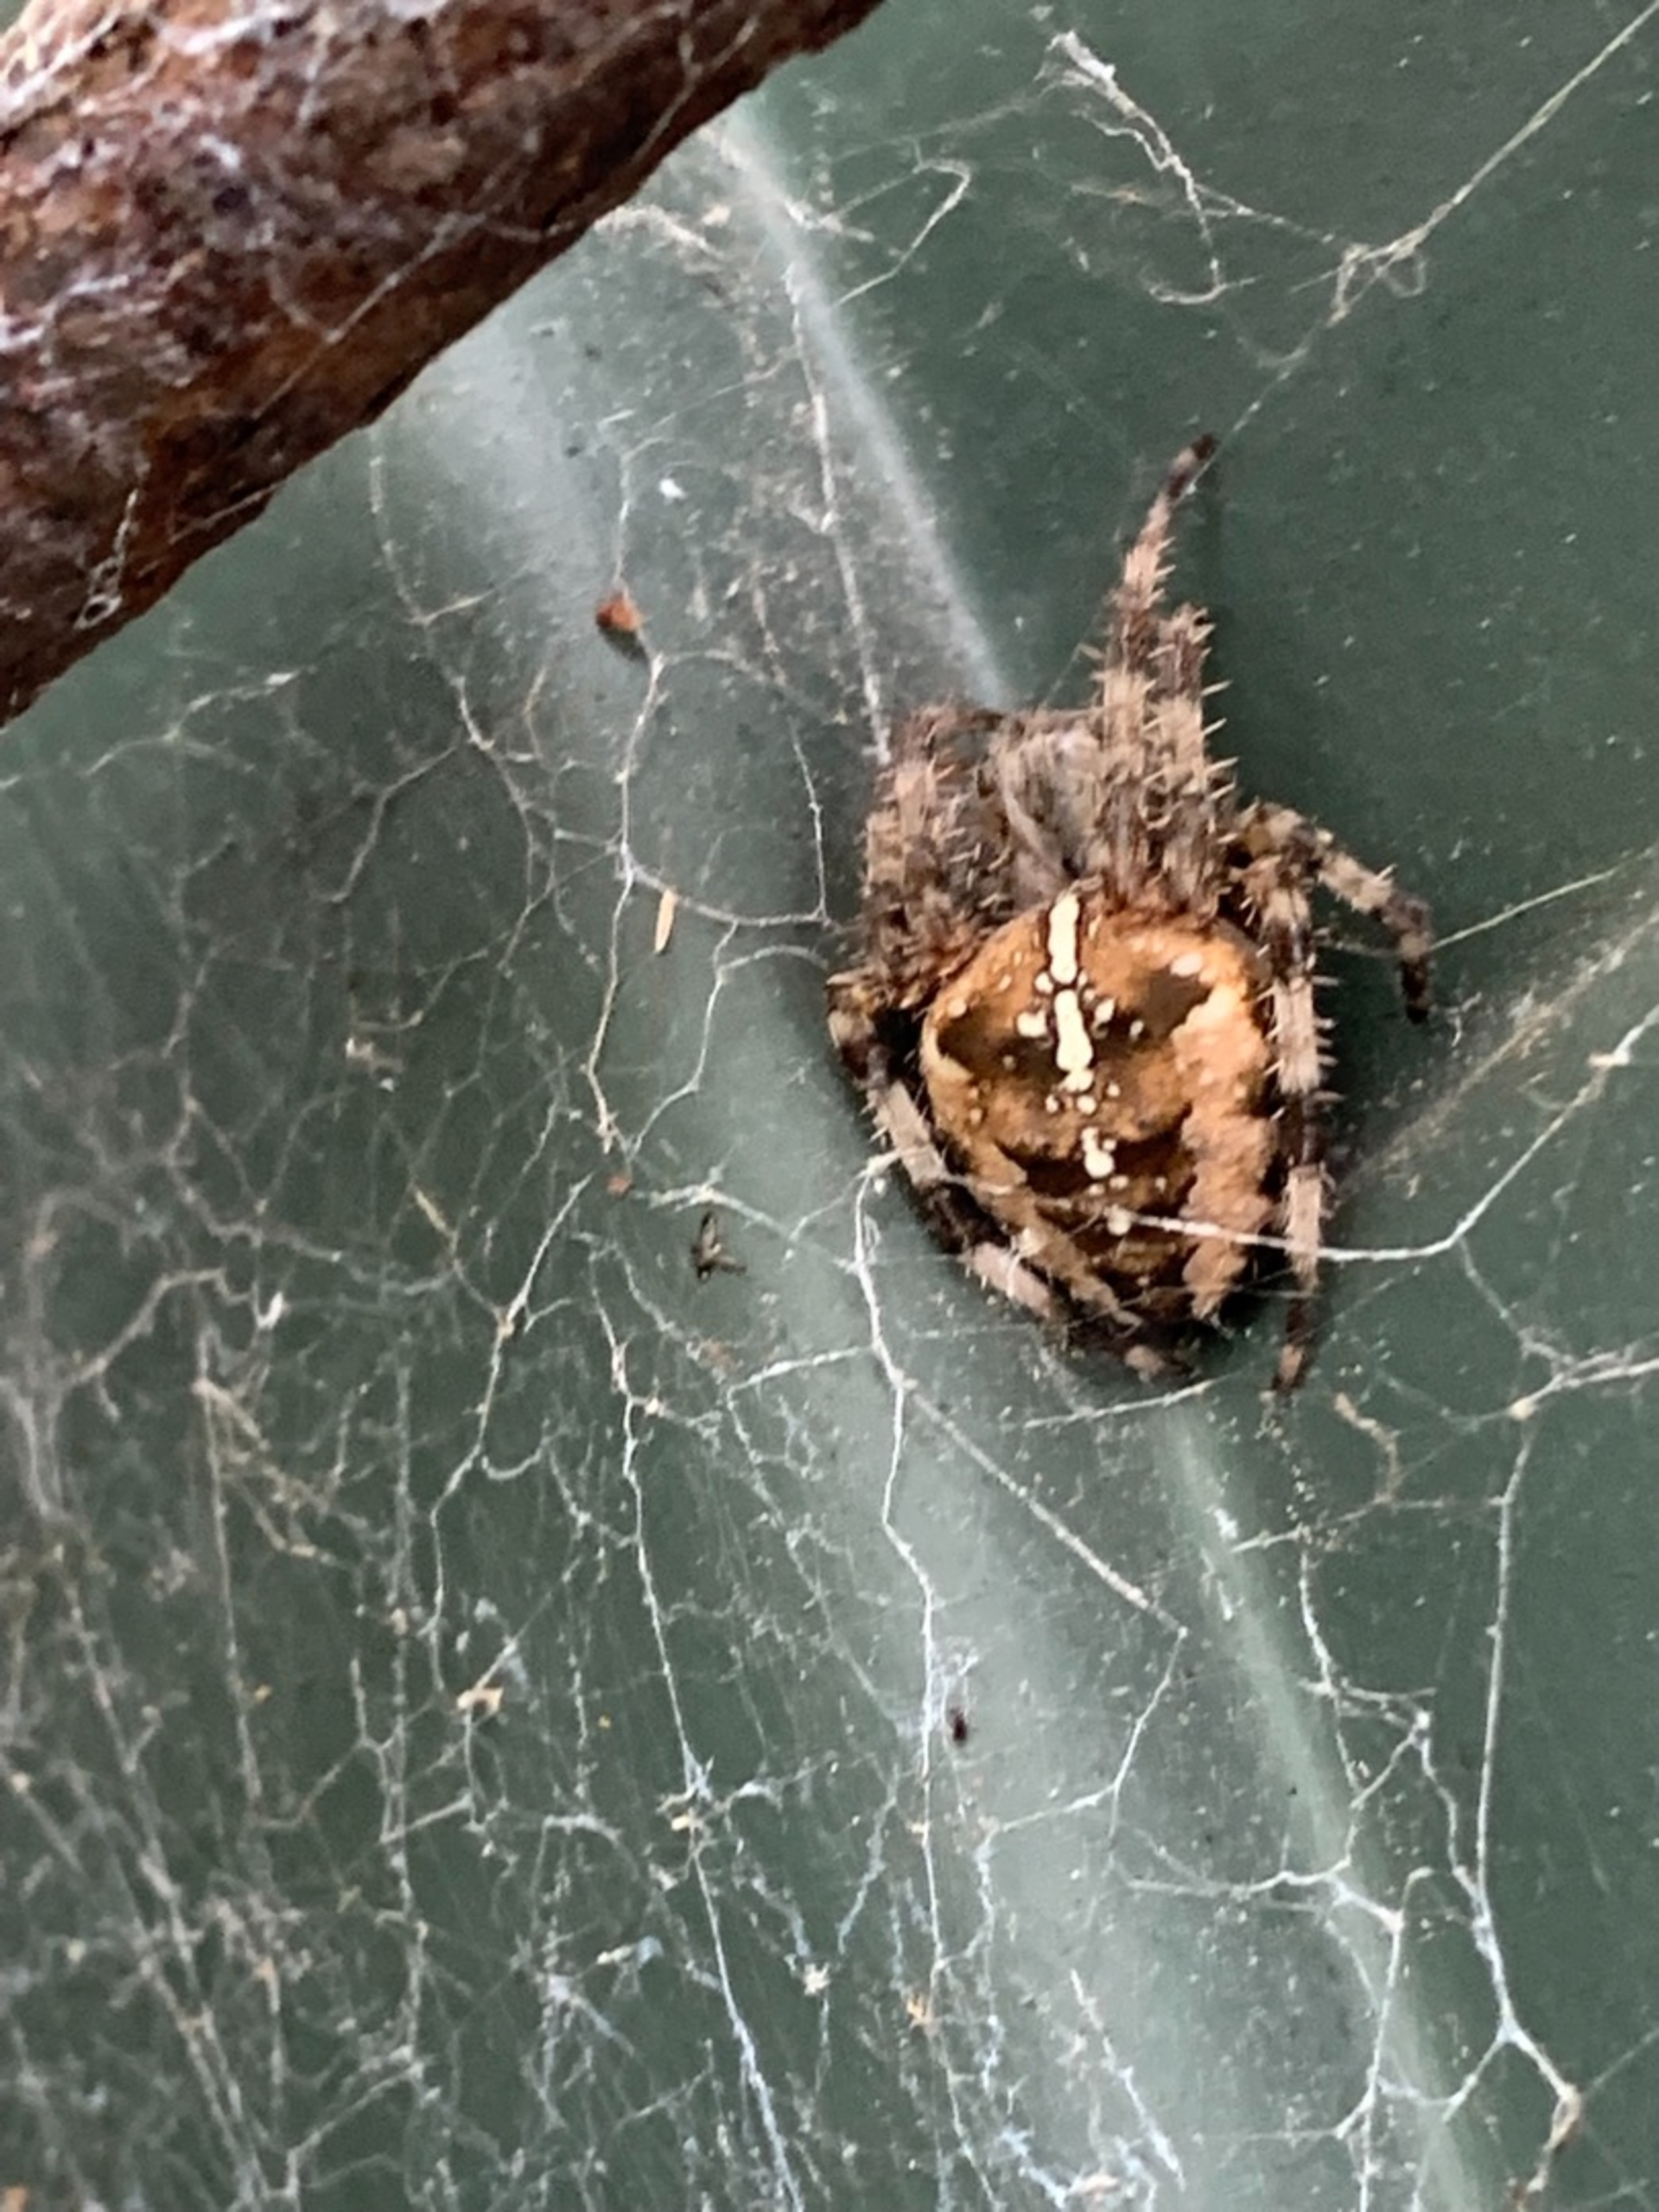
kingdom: Animalia
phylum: Arthropoda
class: Arachnida
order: Araneae
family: Araneidae
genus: Araneus
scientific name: Araneus diadematus
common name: Korsedderkop
